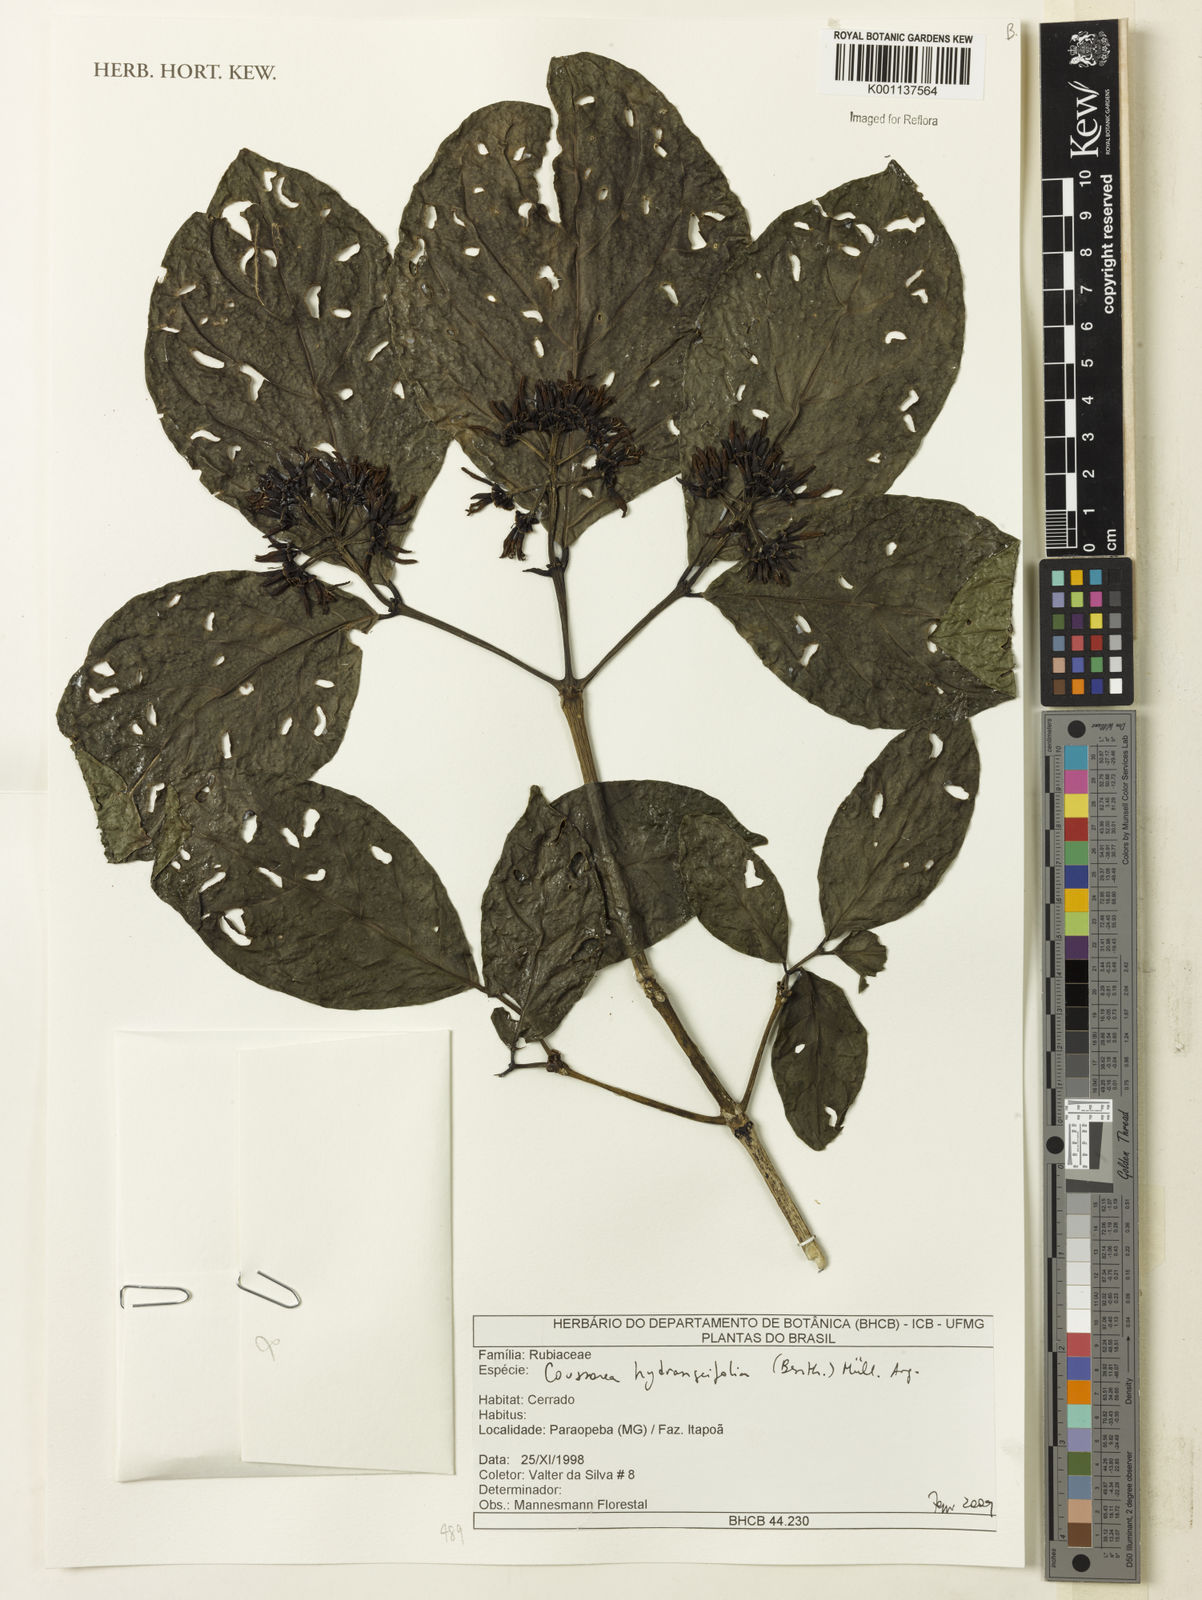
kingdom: Plantae
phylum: Tracheophyta
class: Magnoliopsida
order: Gentianales
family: Rubiaceae
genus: Coussarea
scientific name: Coussarea
